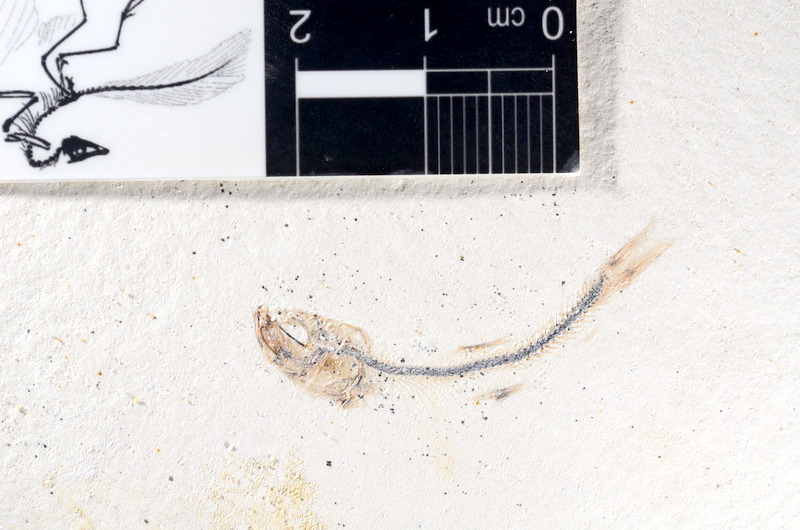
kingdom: Animalia
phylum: Chordata
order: Salmoniformes
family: Orthogonikleithridae
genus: Orthogonikleithrus
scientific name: Orthogonikleithrus hoelli
